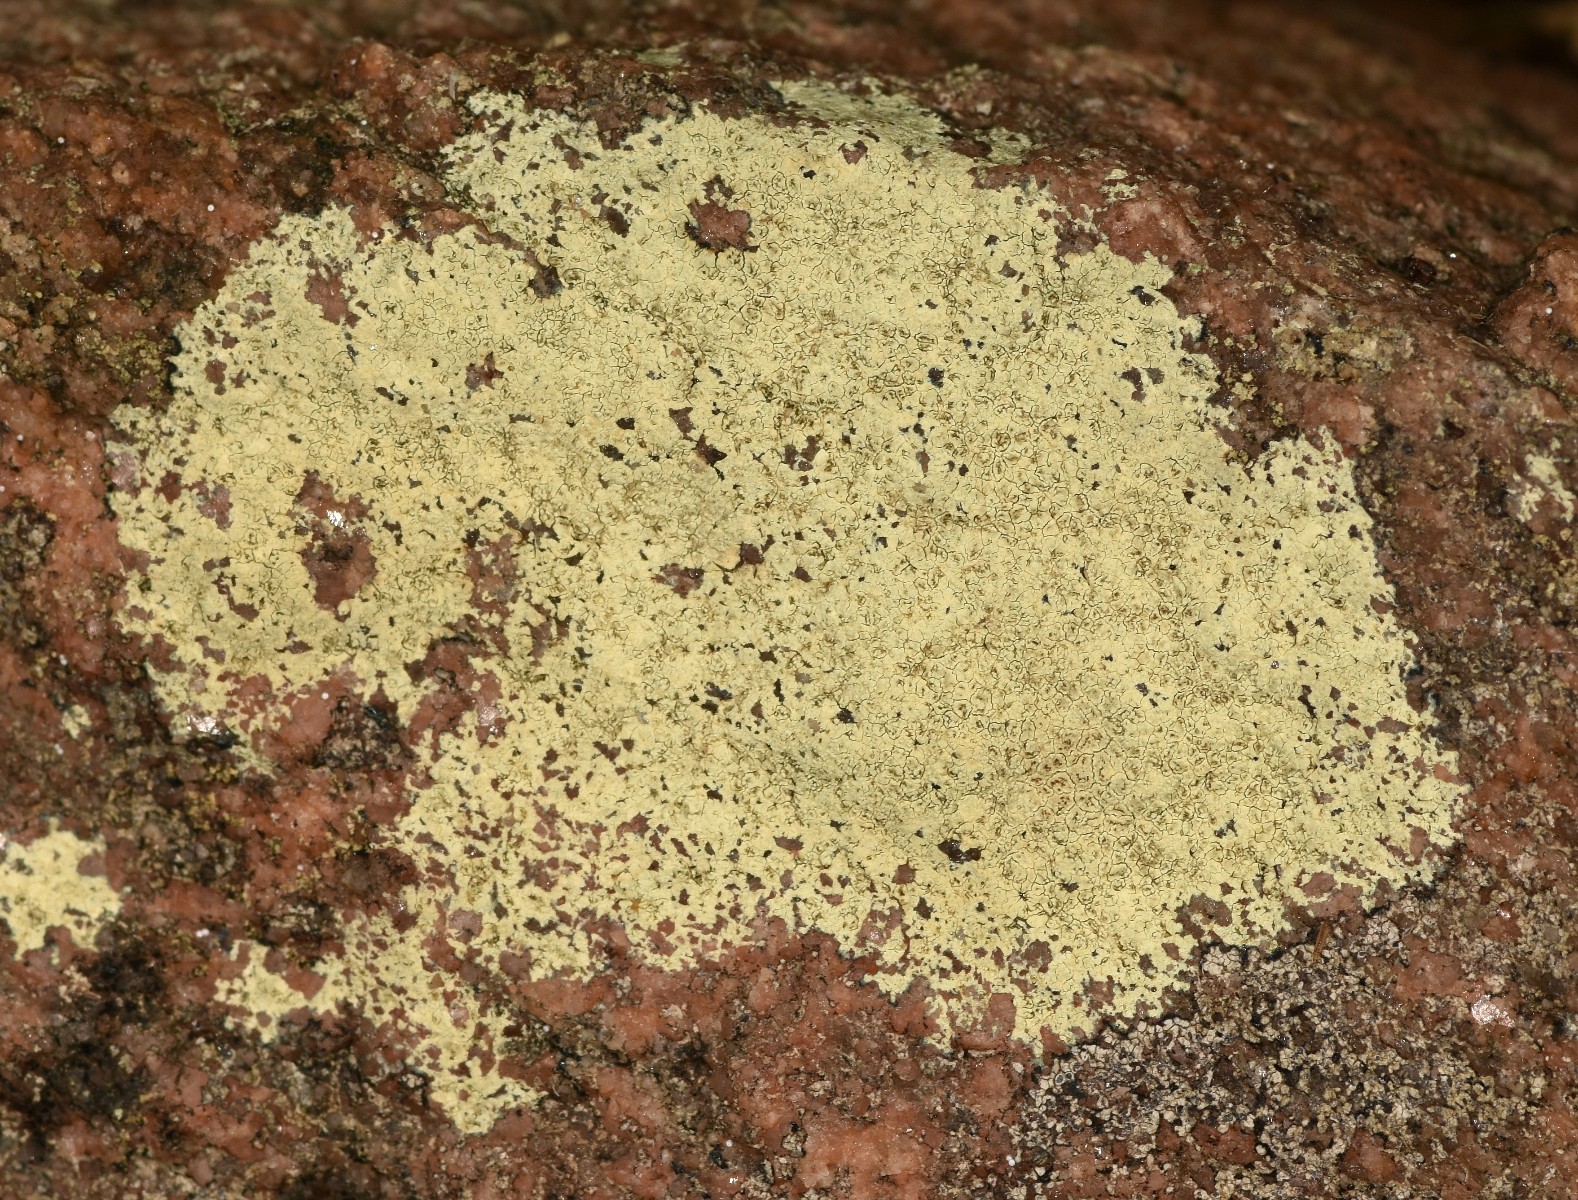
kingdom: Fungi
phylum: Ascomycota
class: Lecanoromycetes
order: Lecanorales
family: Lecanoraceae
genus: Glaucomaria
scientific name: Glaucomaria sulphurea
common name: svovlgul kantskivelav
